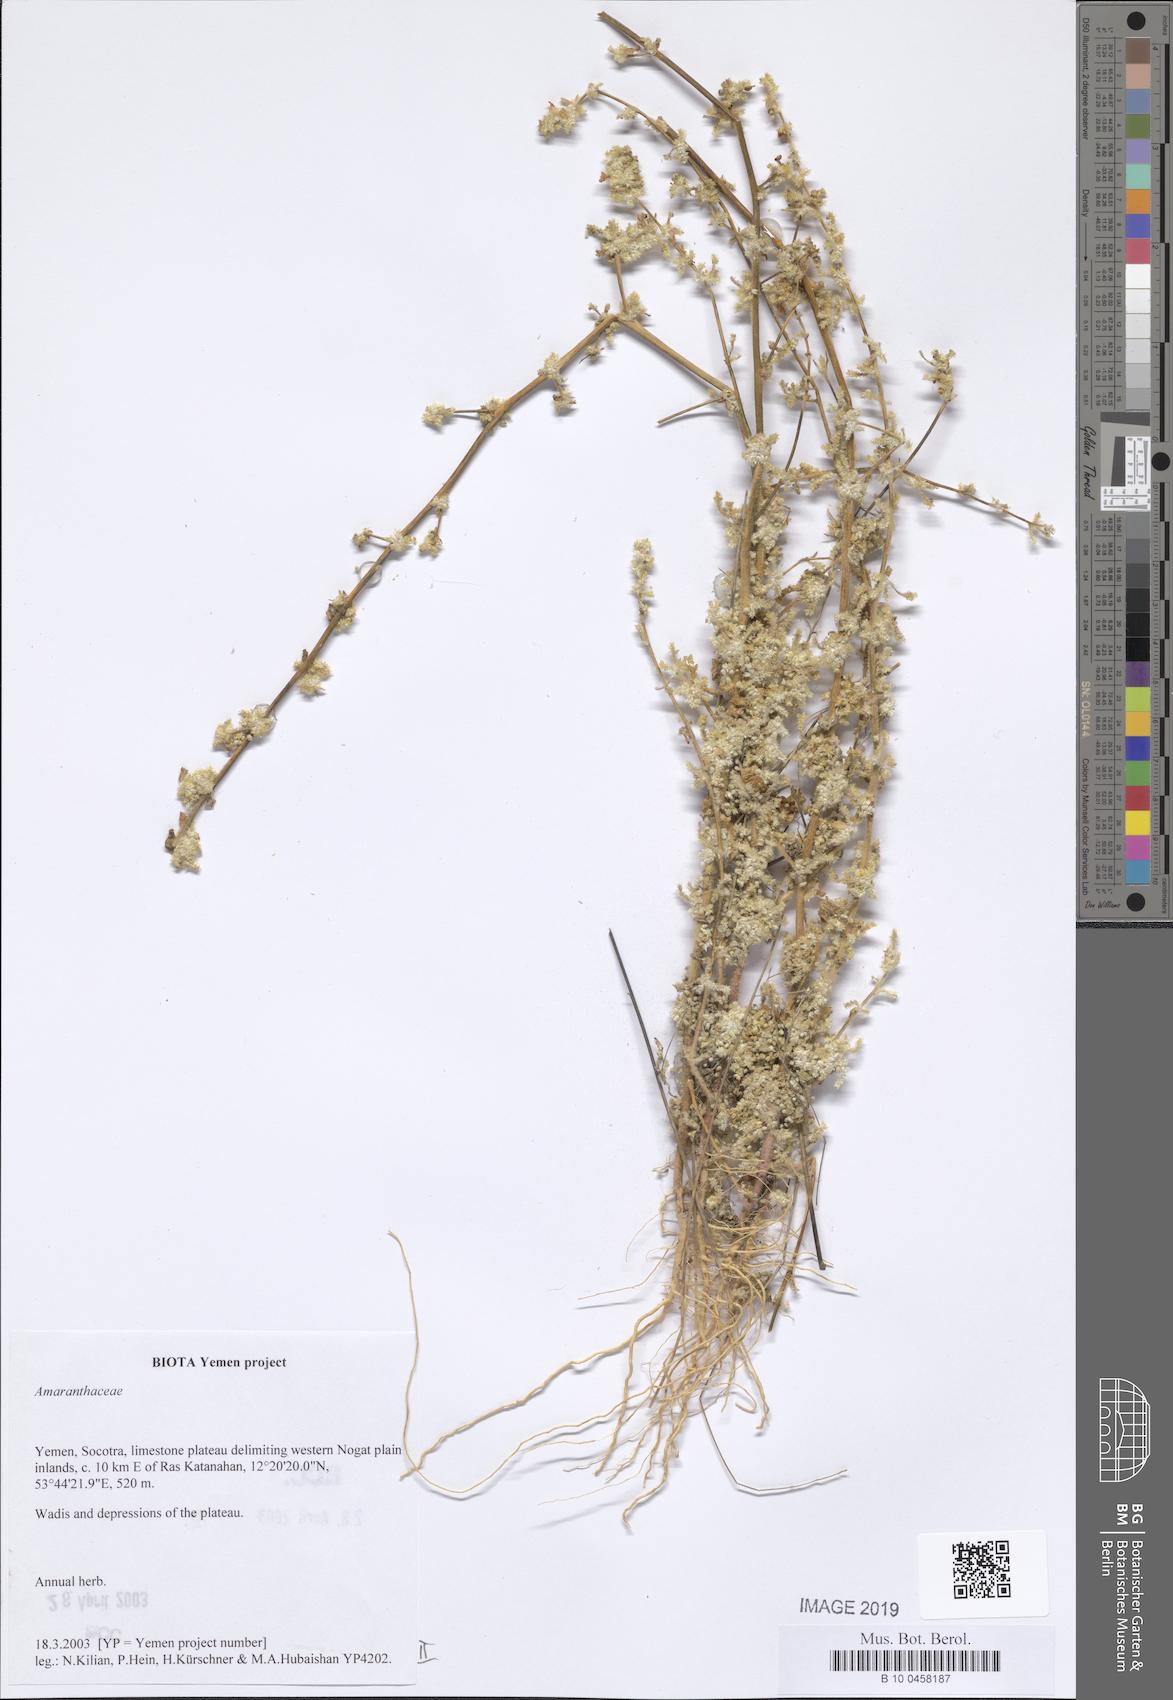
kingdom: Plantae
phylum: Tracheophyta
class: Magnoliopsida
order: Caryophyllales
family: Amaranthaceae
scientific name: Amaranthaceae
